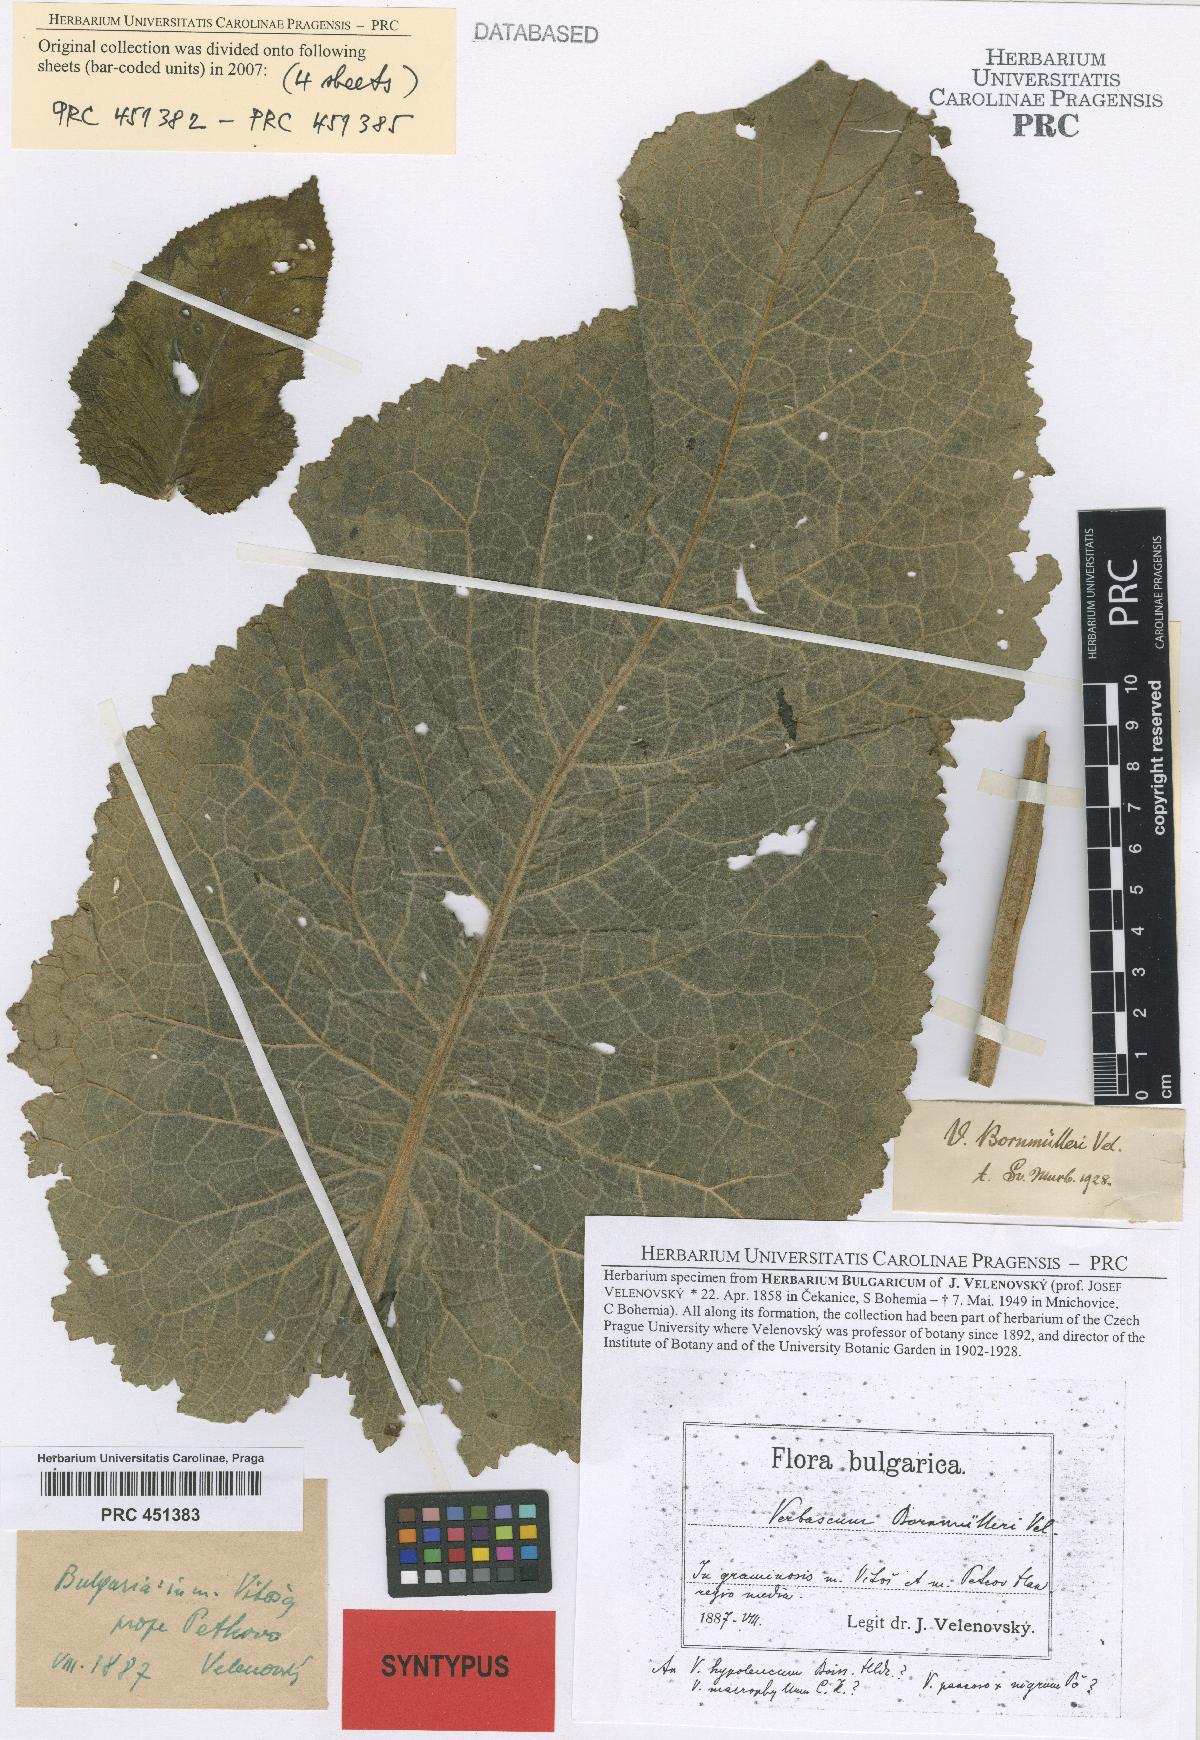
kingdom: Plantae
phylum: Tracheophyta
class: Magnoliopsida
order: Lamiales
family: Scrophulariaceae
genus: Verbascum
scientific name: Verbascum nigrum
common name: Dark mullein
